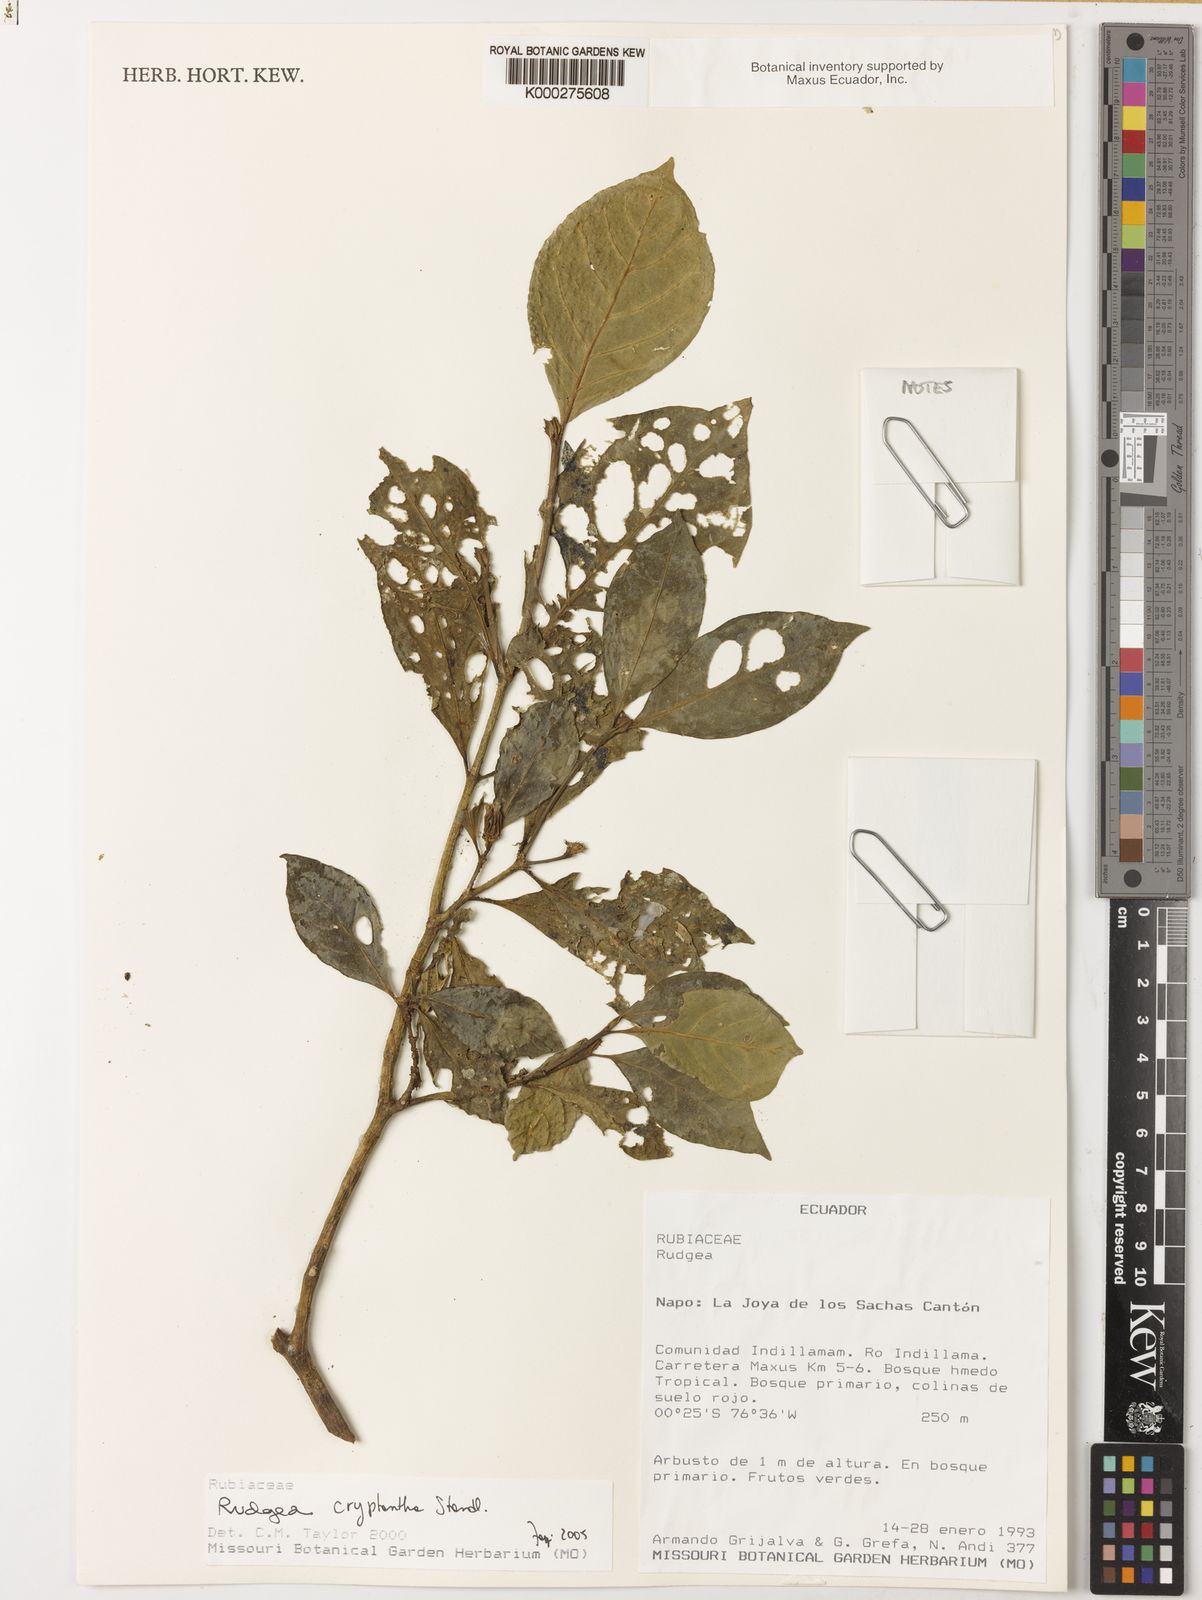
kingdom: Plantae
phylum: Tracheophyta
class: Magnoliopsida
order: Gentianales
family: Rubiaceae
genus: Rudgea
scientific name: Rudgea cryptantha
